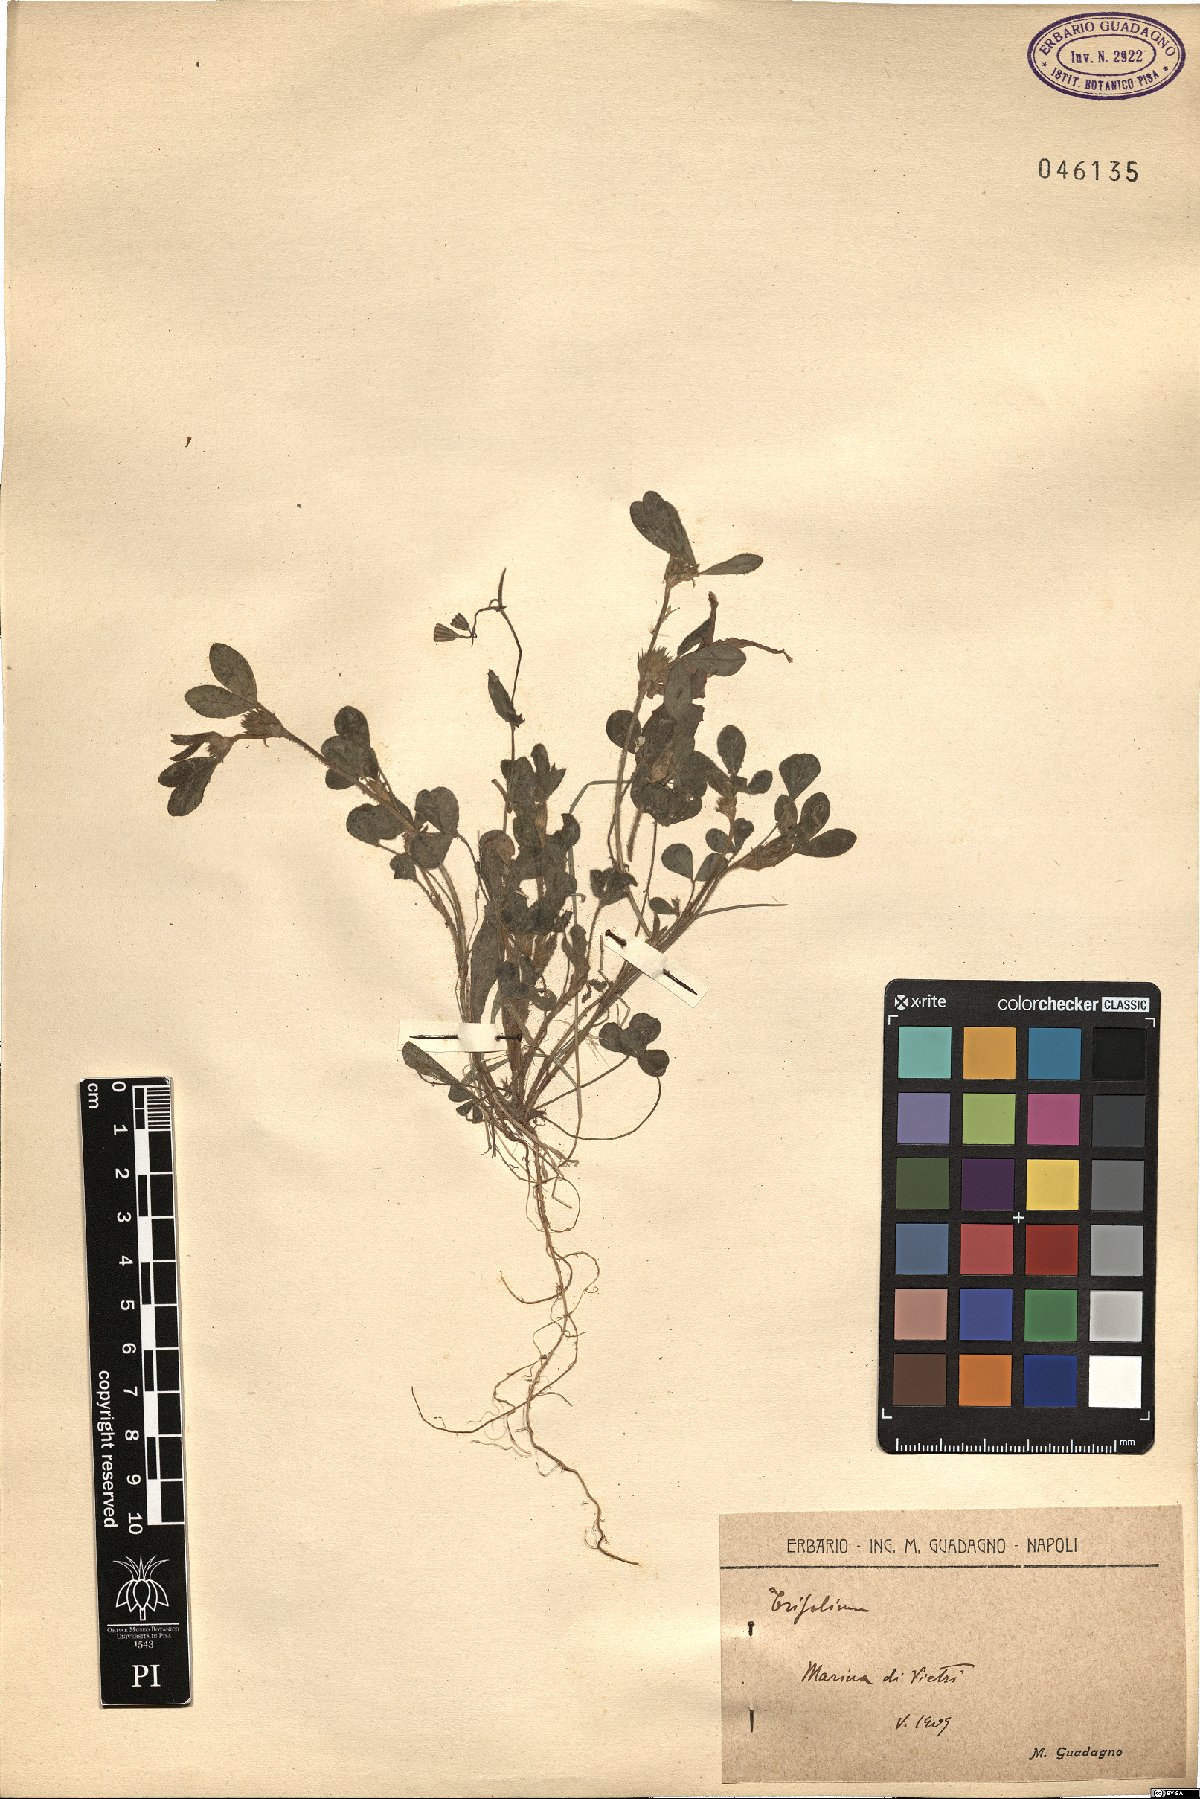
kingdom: Plantae
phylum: Tracheophyta
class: Magnoliopsida
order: Fabales
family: Fabaceae
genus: Trifolium
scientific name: Trifolium
